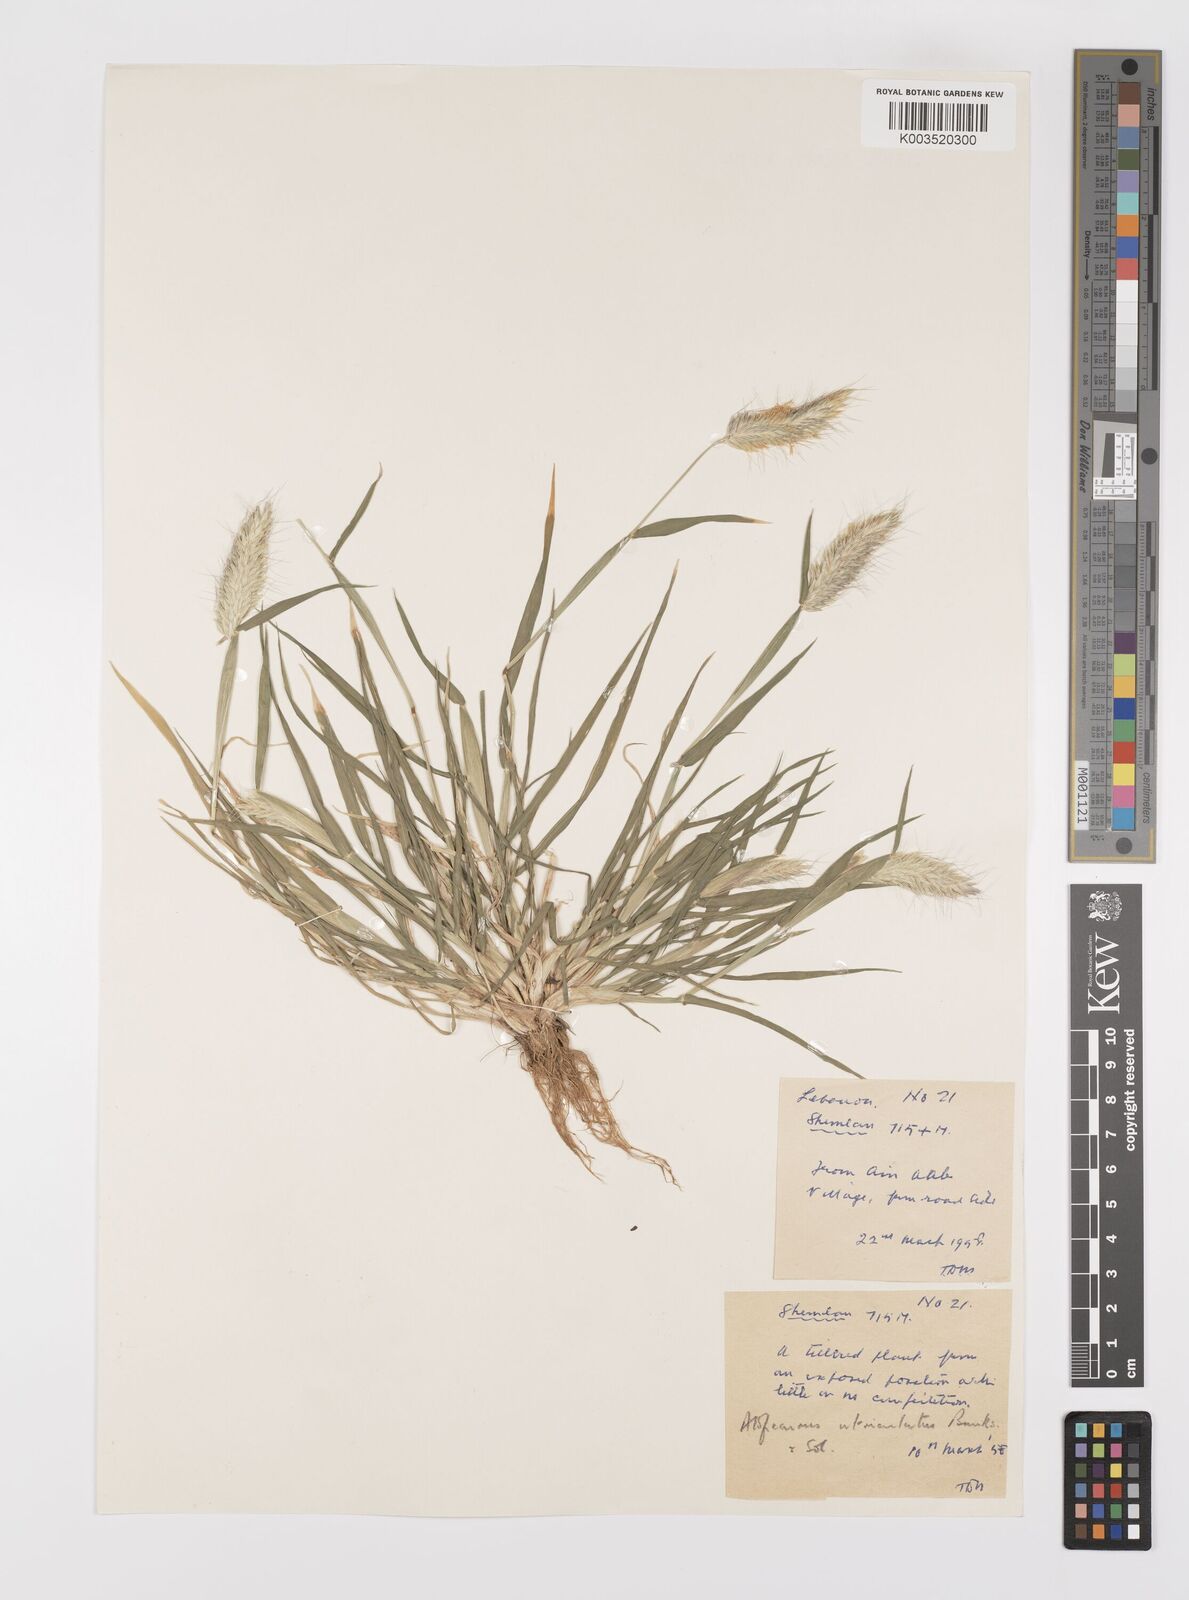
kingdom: Plantae
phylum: Tracheophyta
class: Liliopsida
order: Poales
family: Poaceae
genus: Alopecurus
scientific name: Alopecurus utriculatus
